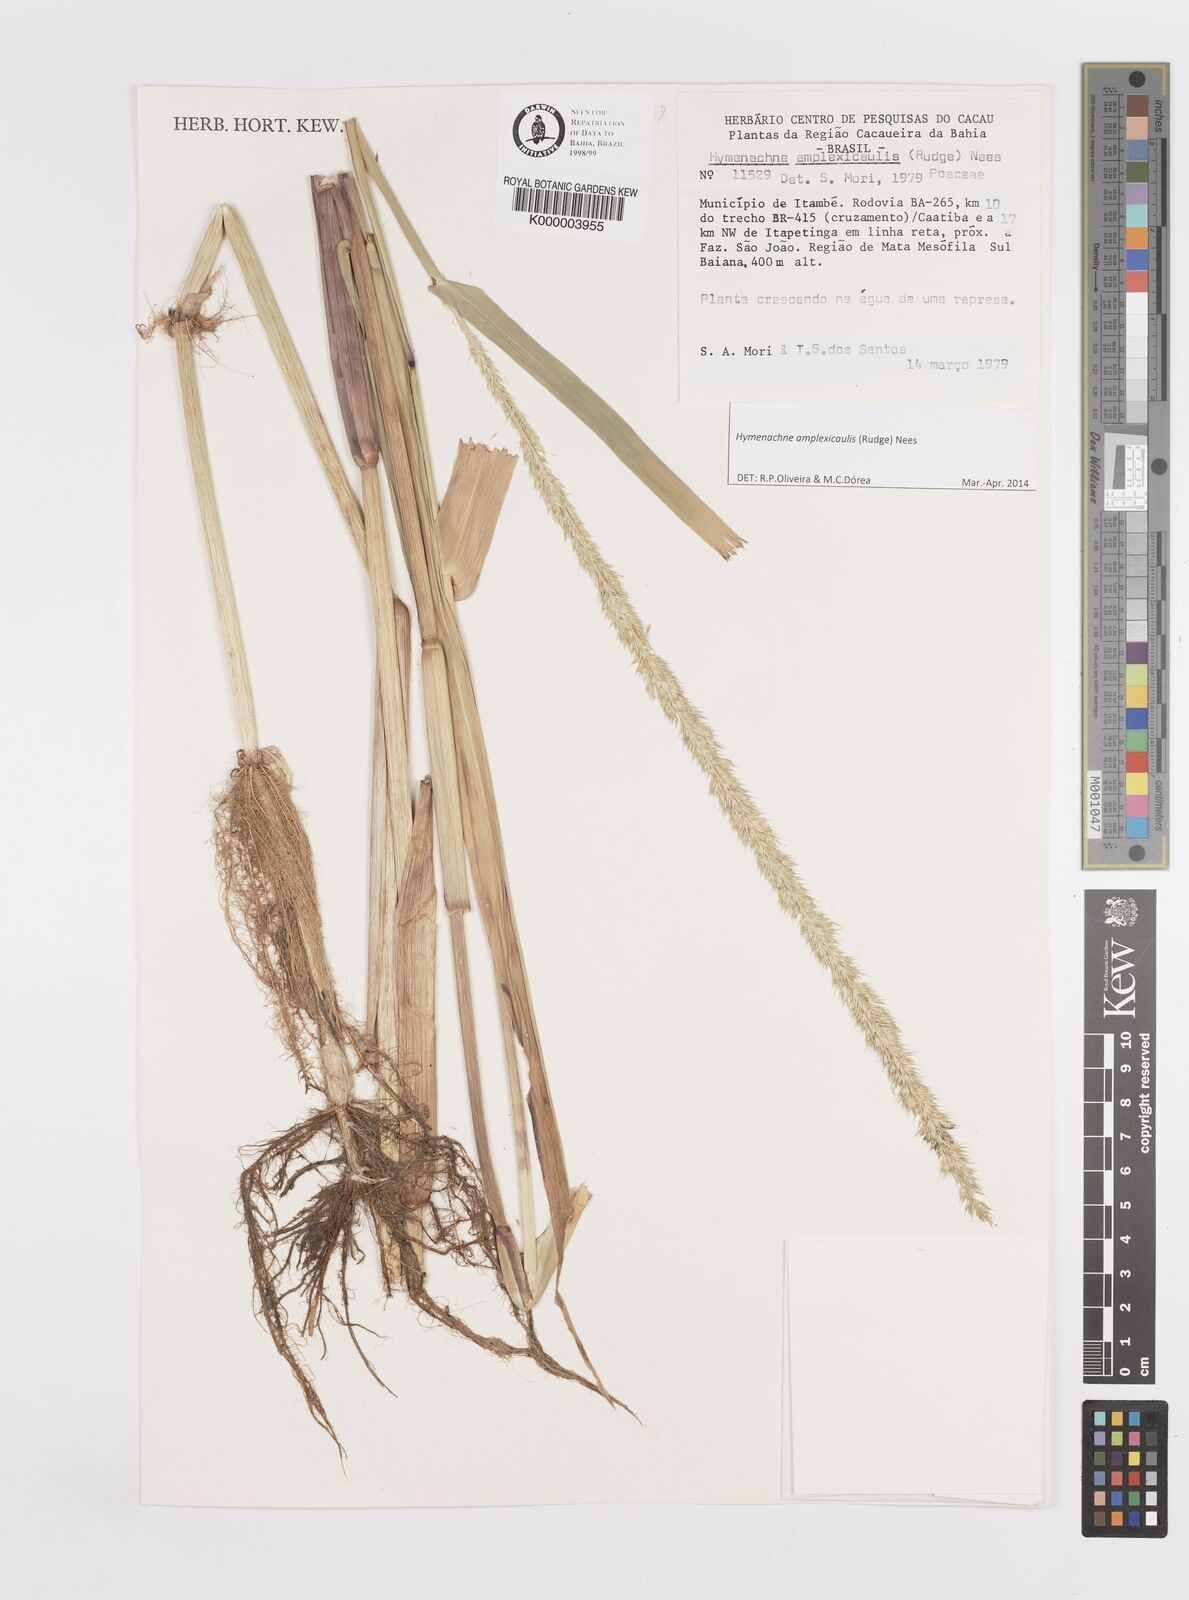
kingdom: Plantae
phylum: Tracheophyta
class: Liliopsida
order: Poales
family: Poaceae
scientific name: Poaceae
